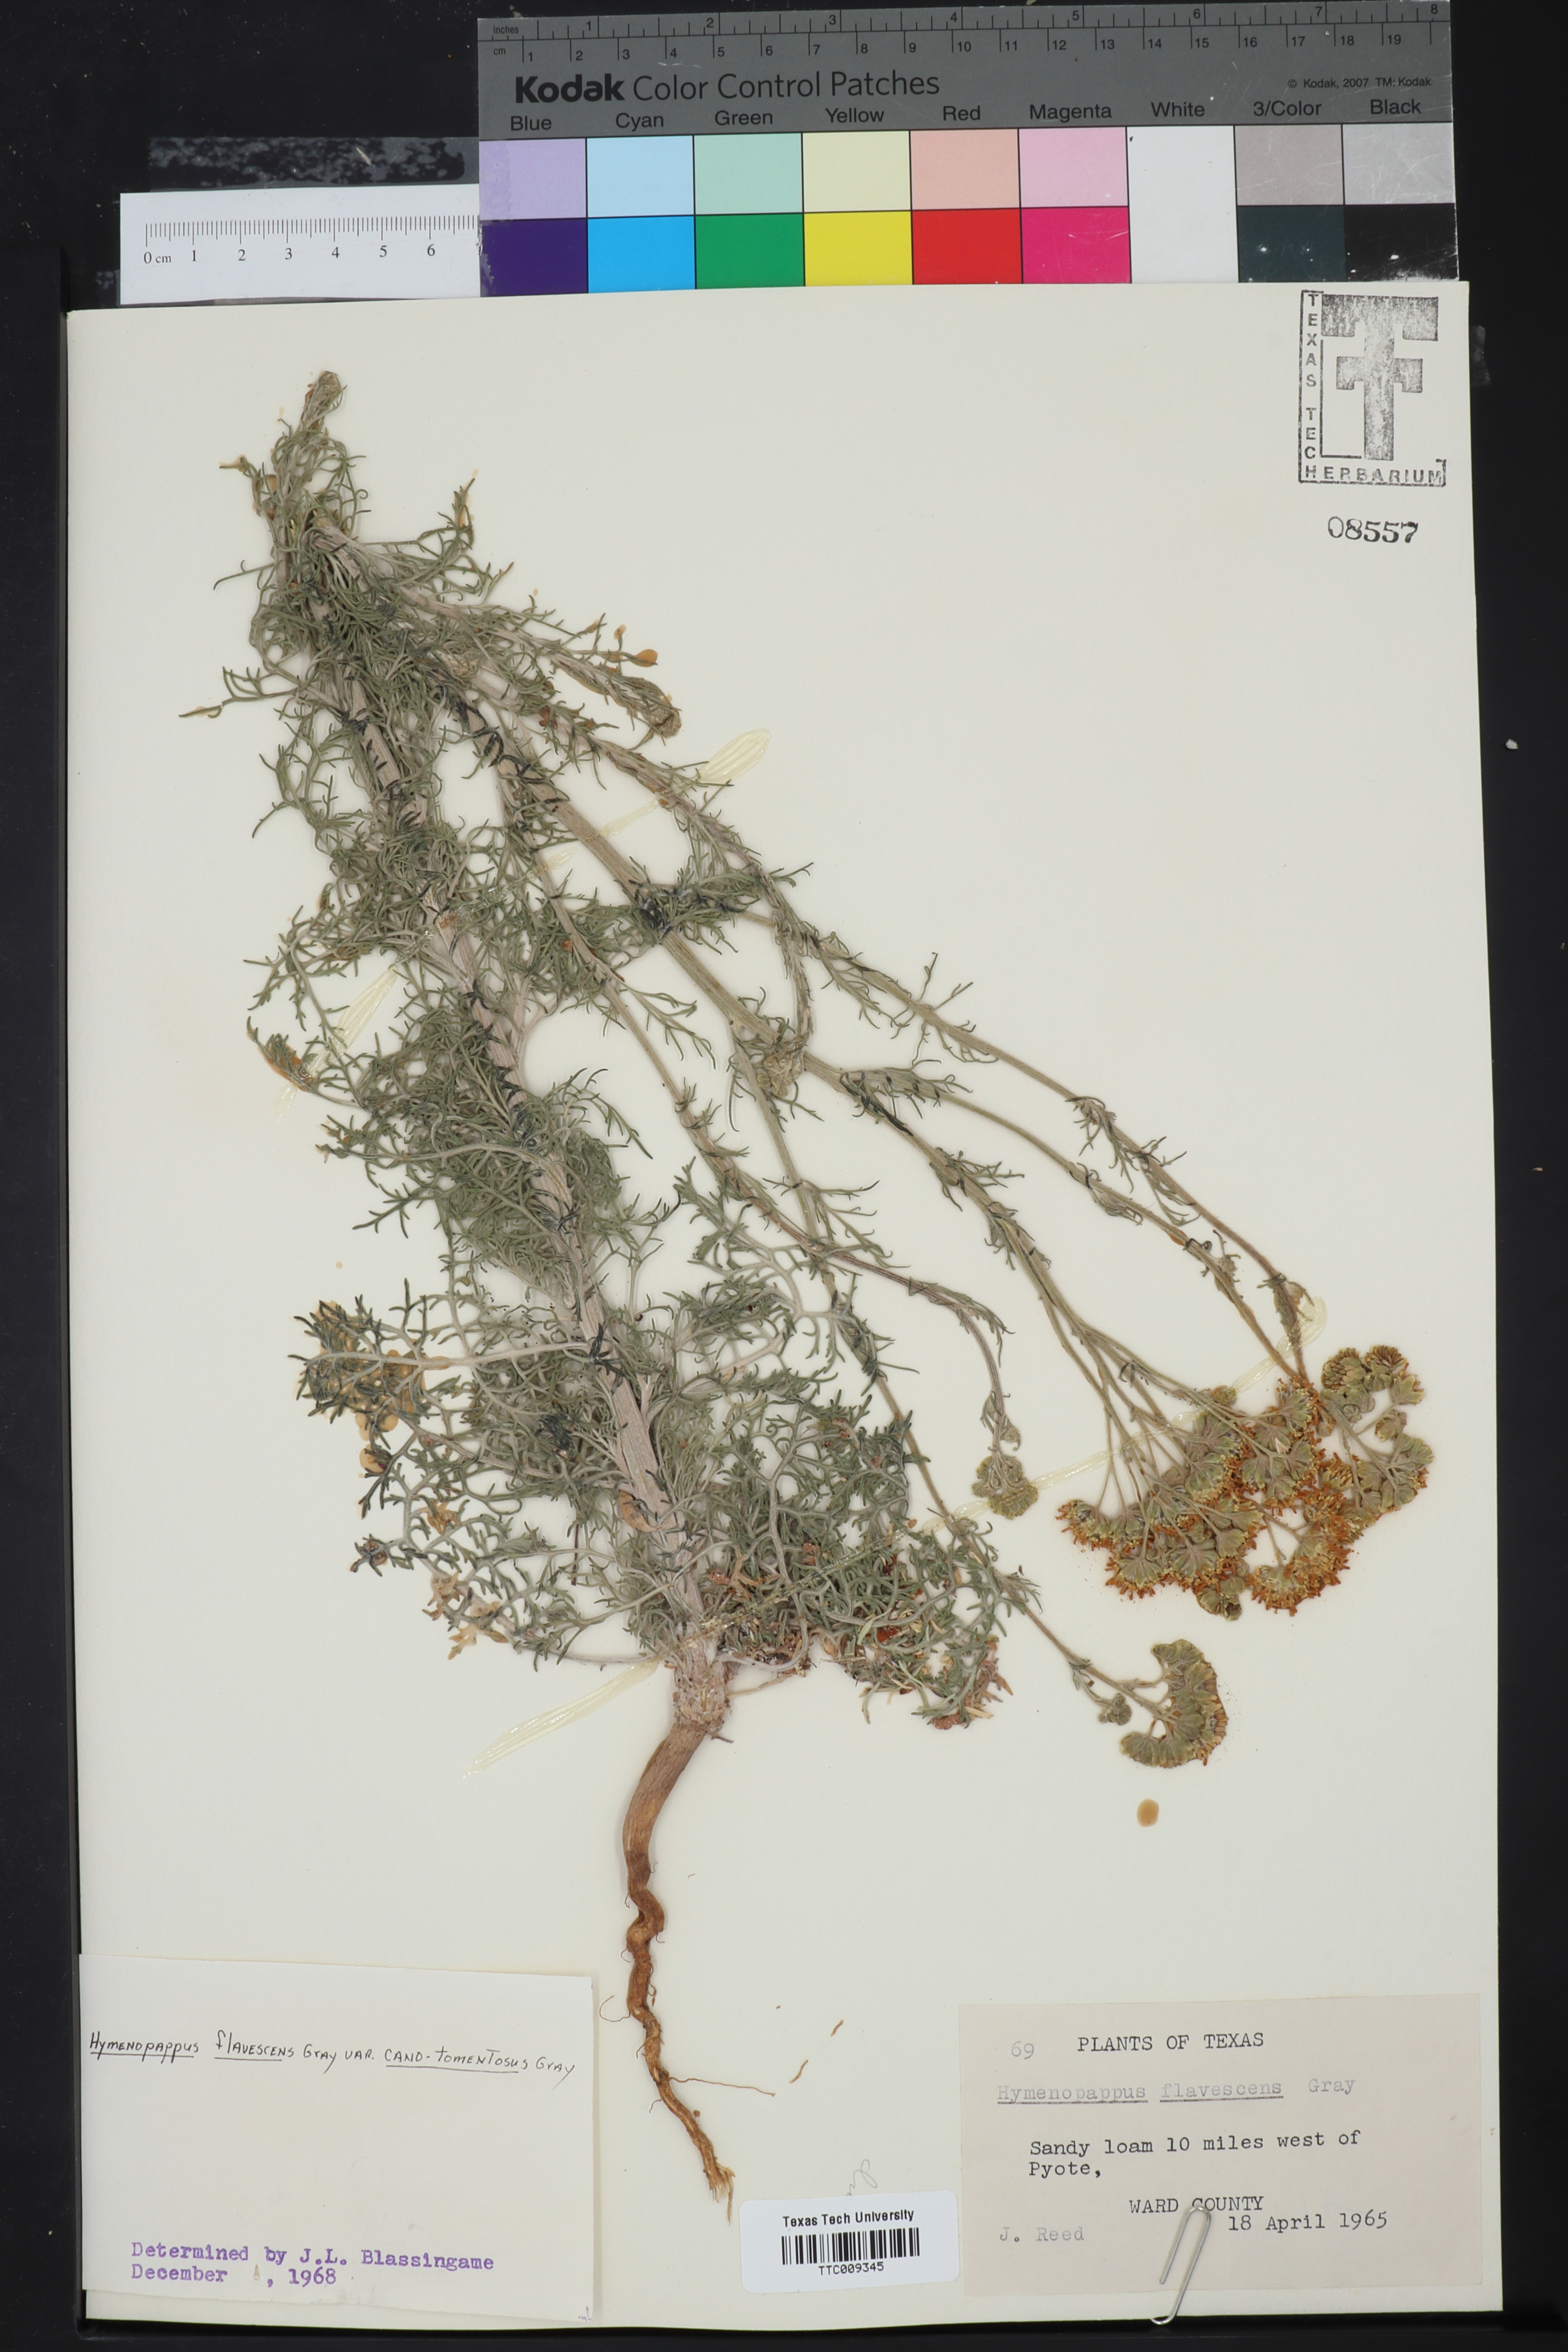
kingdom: Plantae
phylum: Tracheophyta
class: Magnoliopsida
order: Asterales
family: Asteraceae
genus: Hymenopappus
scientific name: Hymenopappus flavescens
